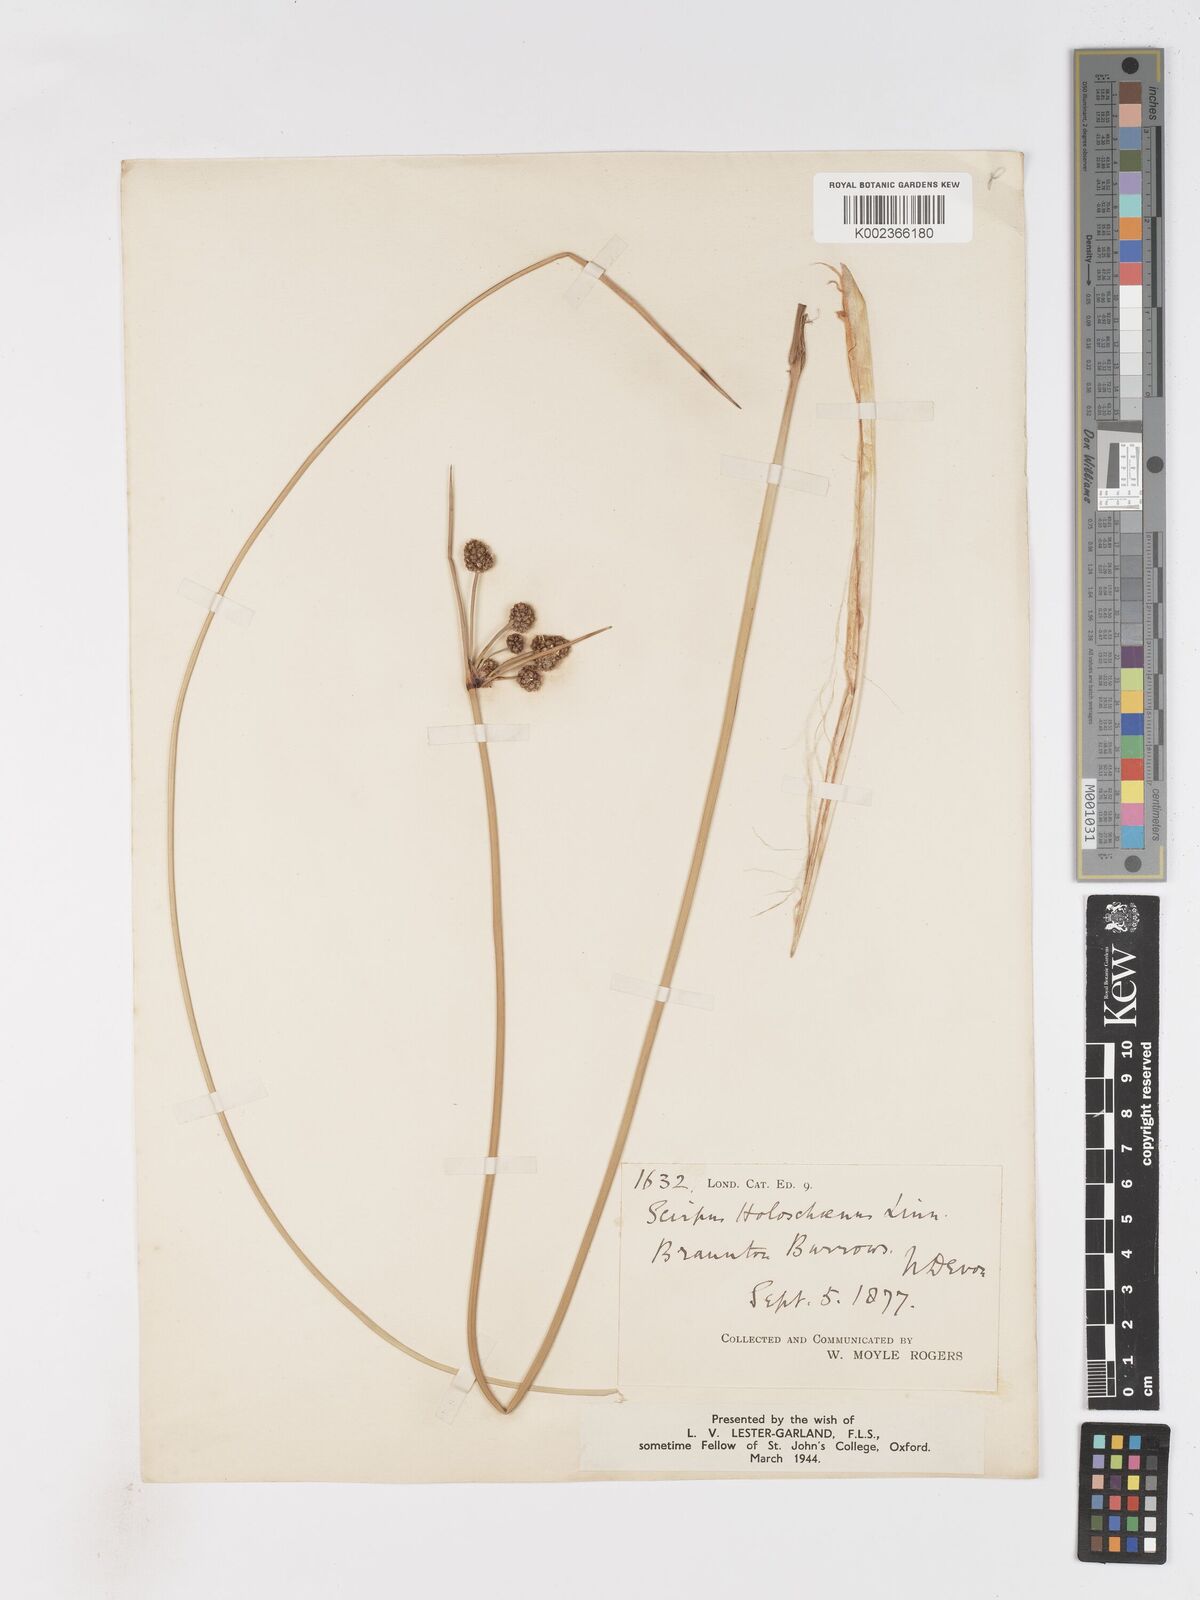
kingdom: Plantae
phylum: Tracheophyta
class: Liliopsida
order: Poales
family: Cyperaceae
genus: Scirpoides
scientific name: Scirpoides holoschoenus
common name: Round-headed club-rush
